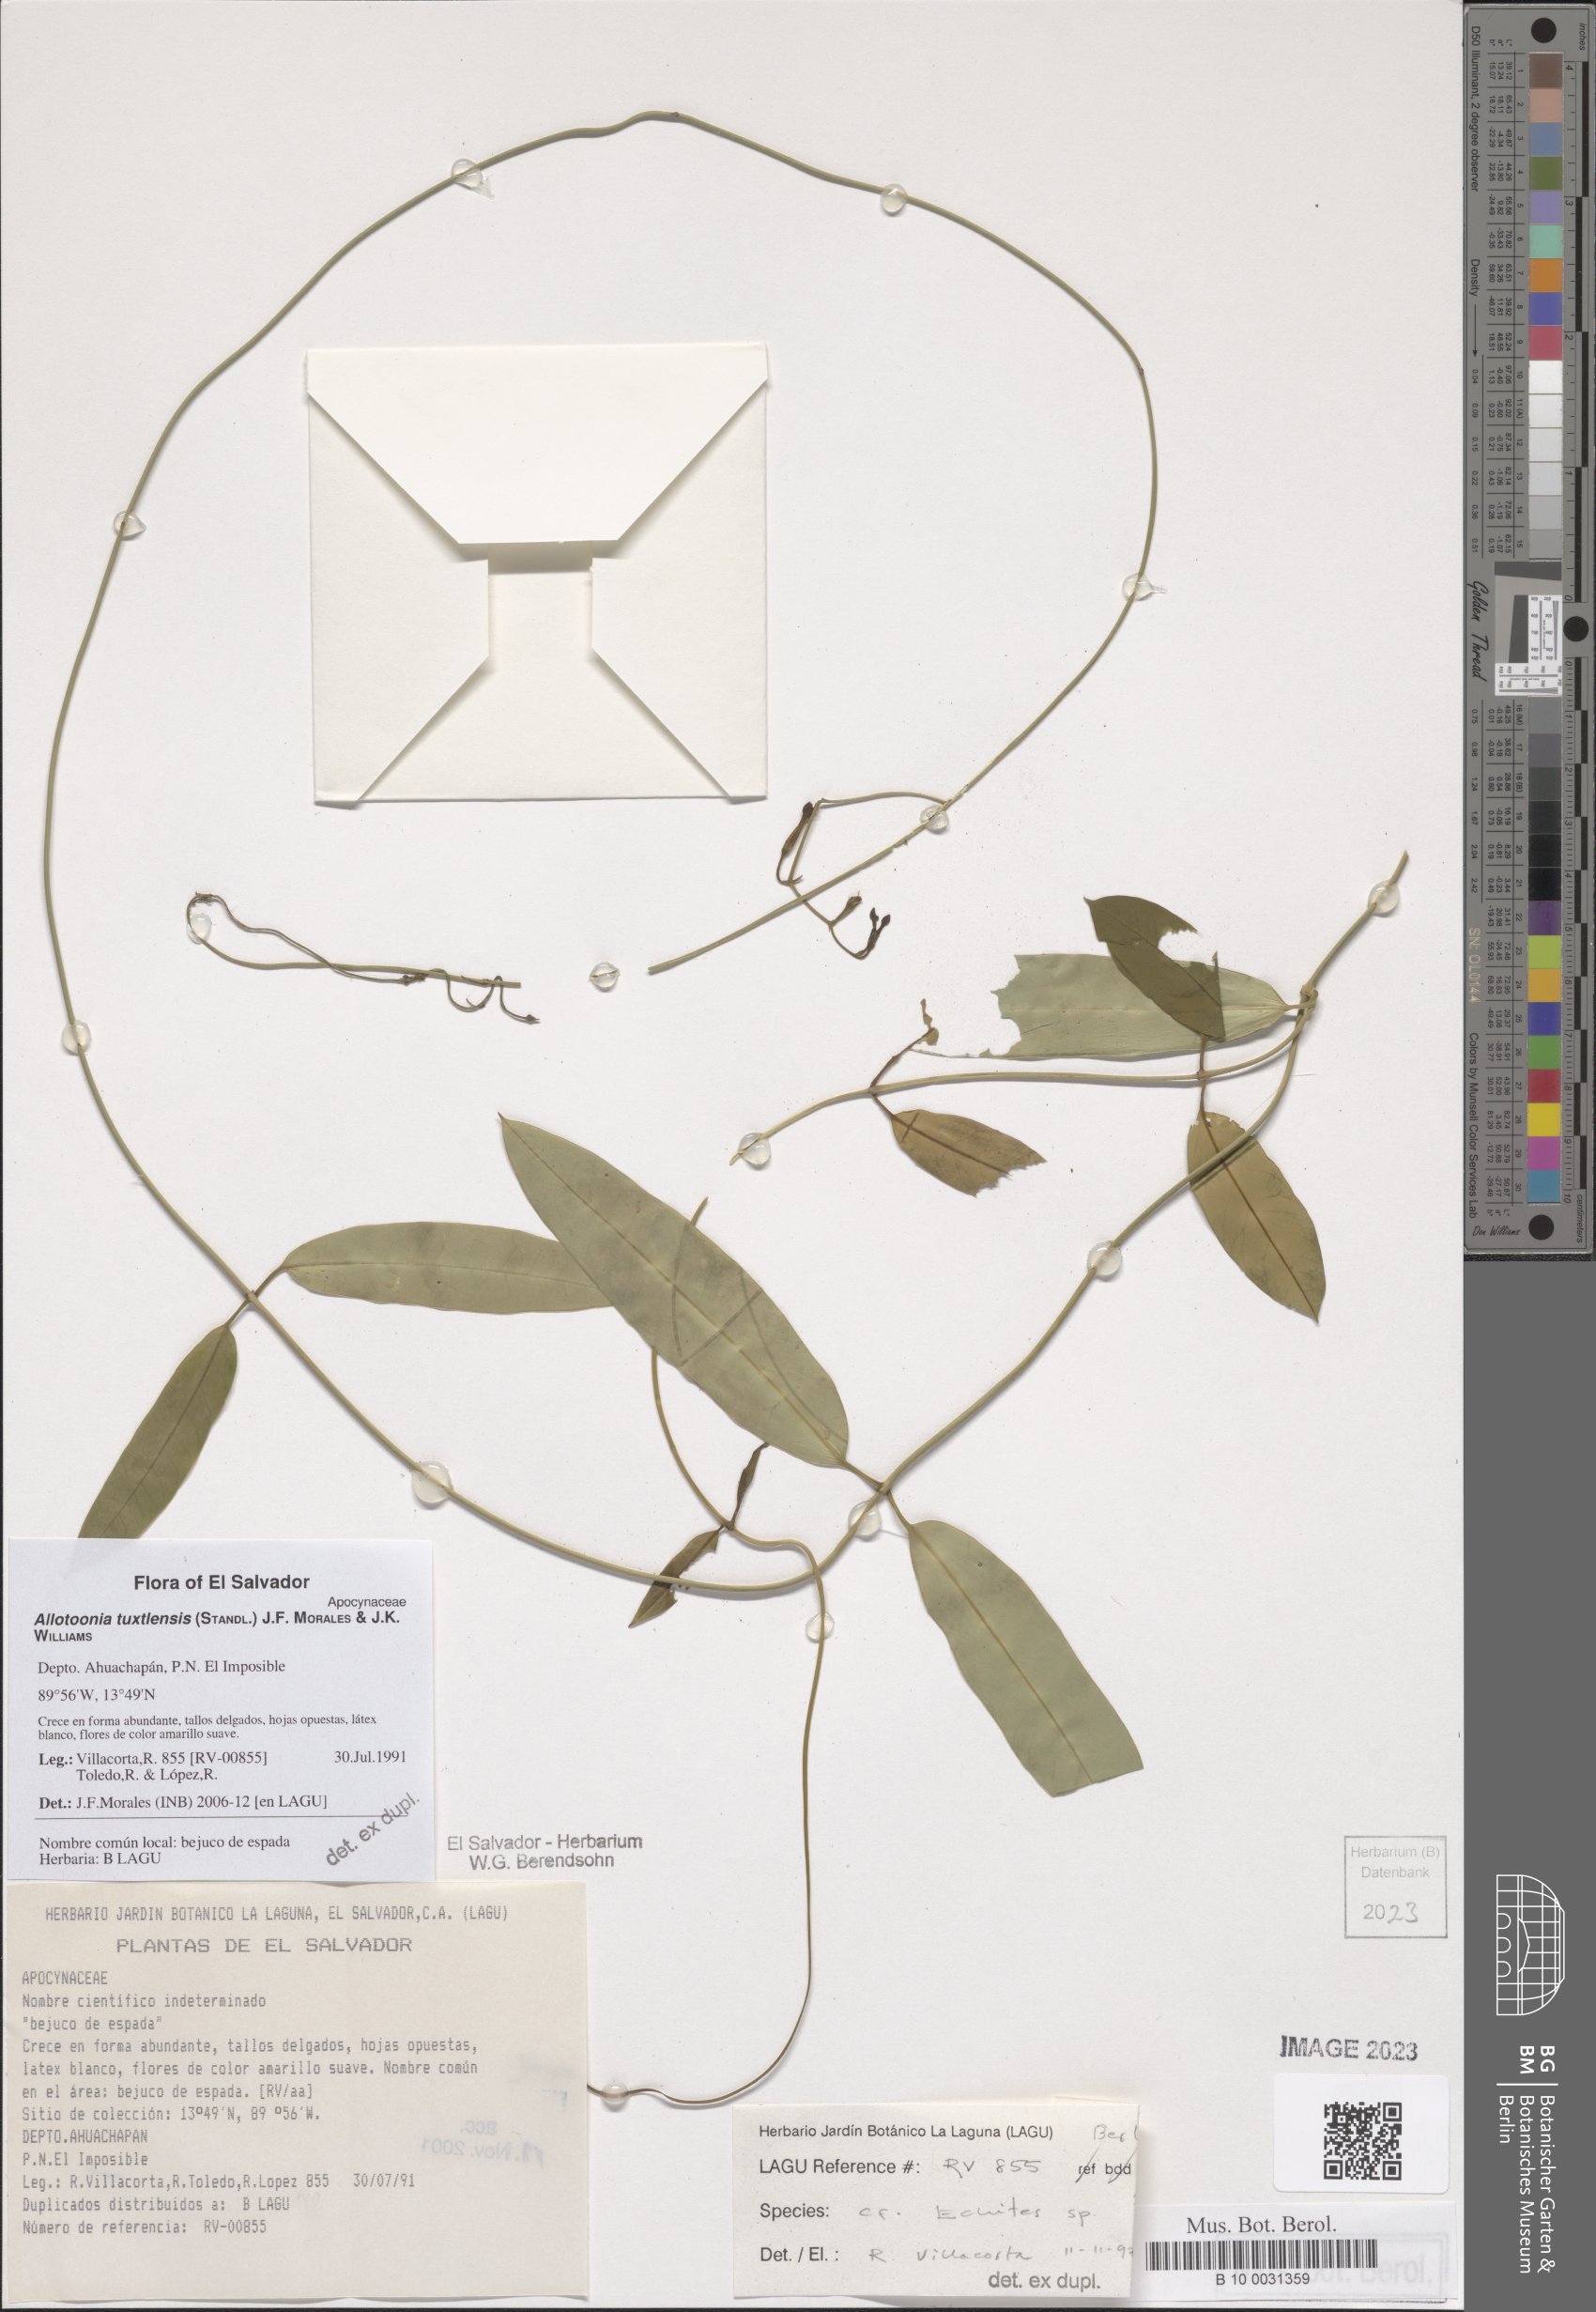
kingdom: Plantae
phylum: Tracheophyta
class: Magnoliopsida
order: Gentianales
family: Apocynaceae
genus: Echites
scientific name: Echites tuxtlensis
